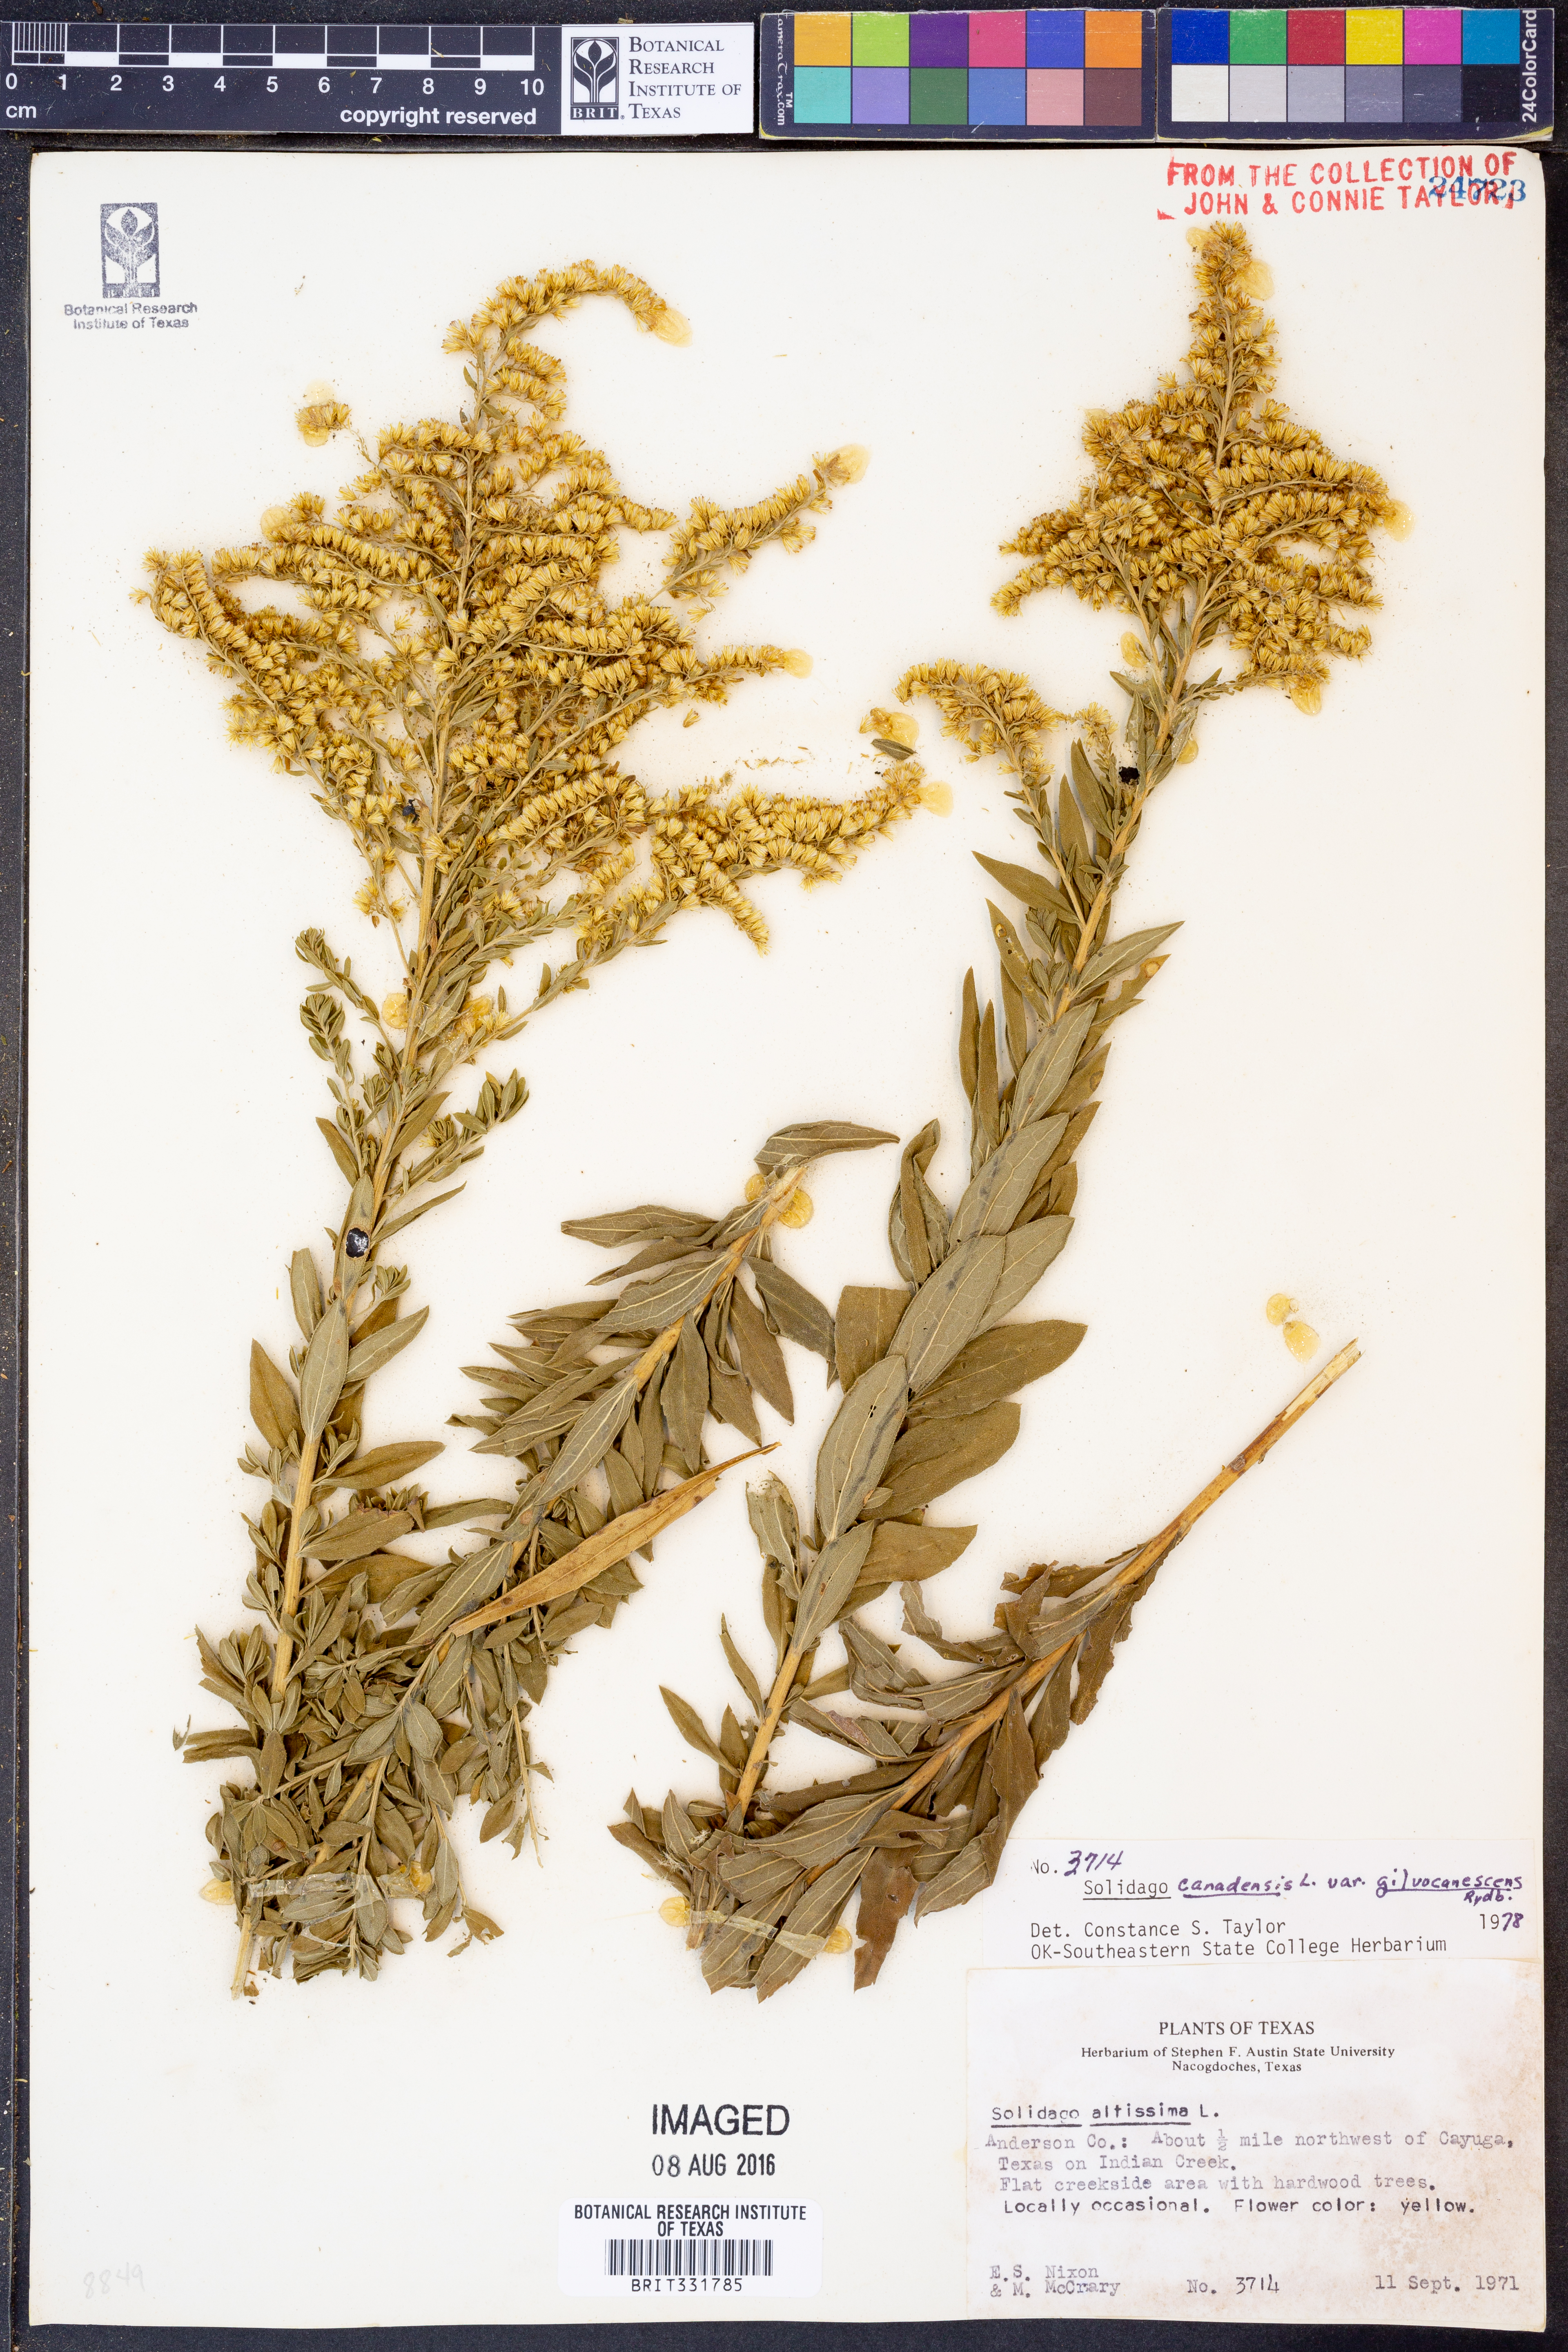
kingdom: Plantae
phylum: Tracheophyta
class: Magnoliopsida
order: Asterales
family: Asteraceae
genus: Solidago
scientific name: Solidago altissima
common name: Late goldenrod
